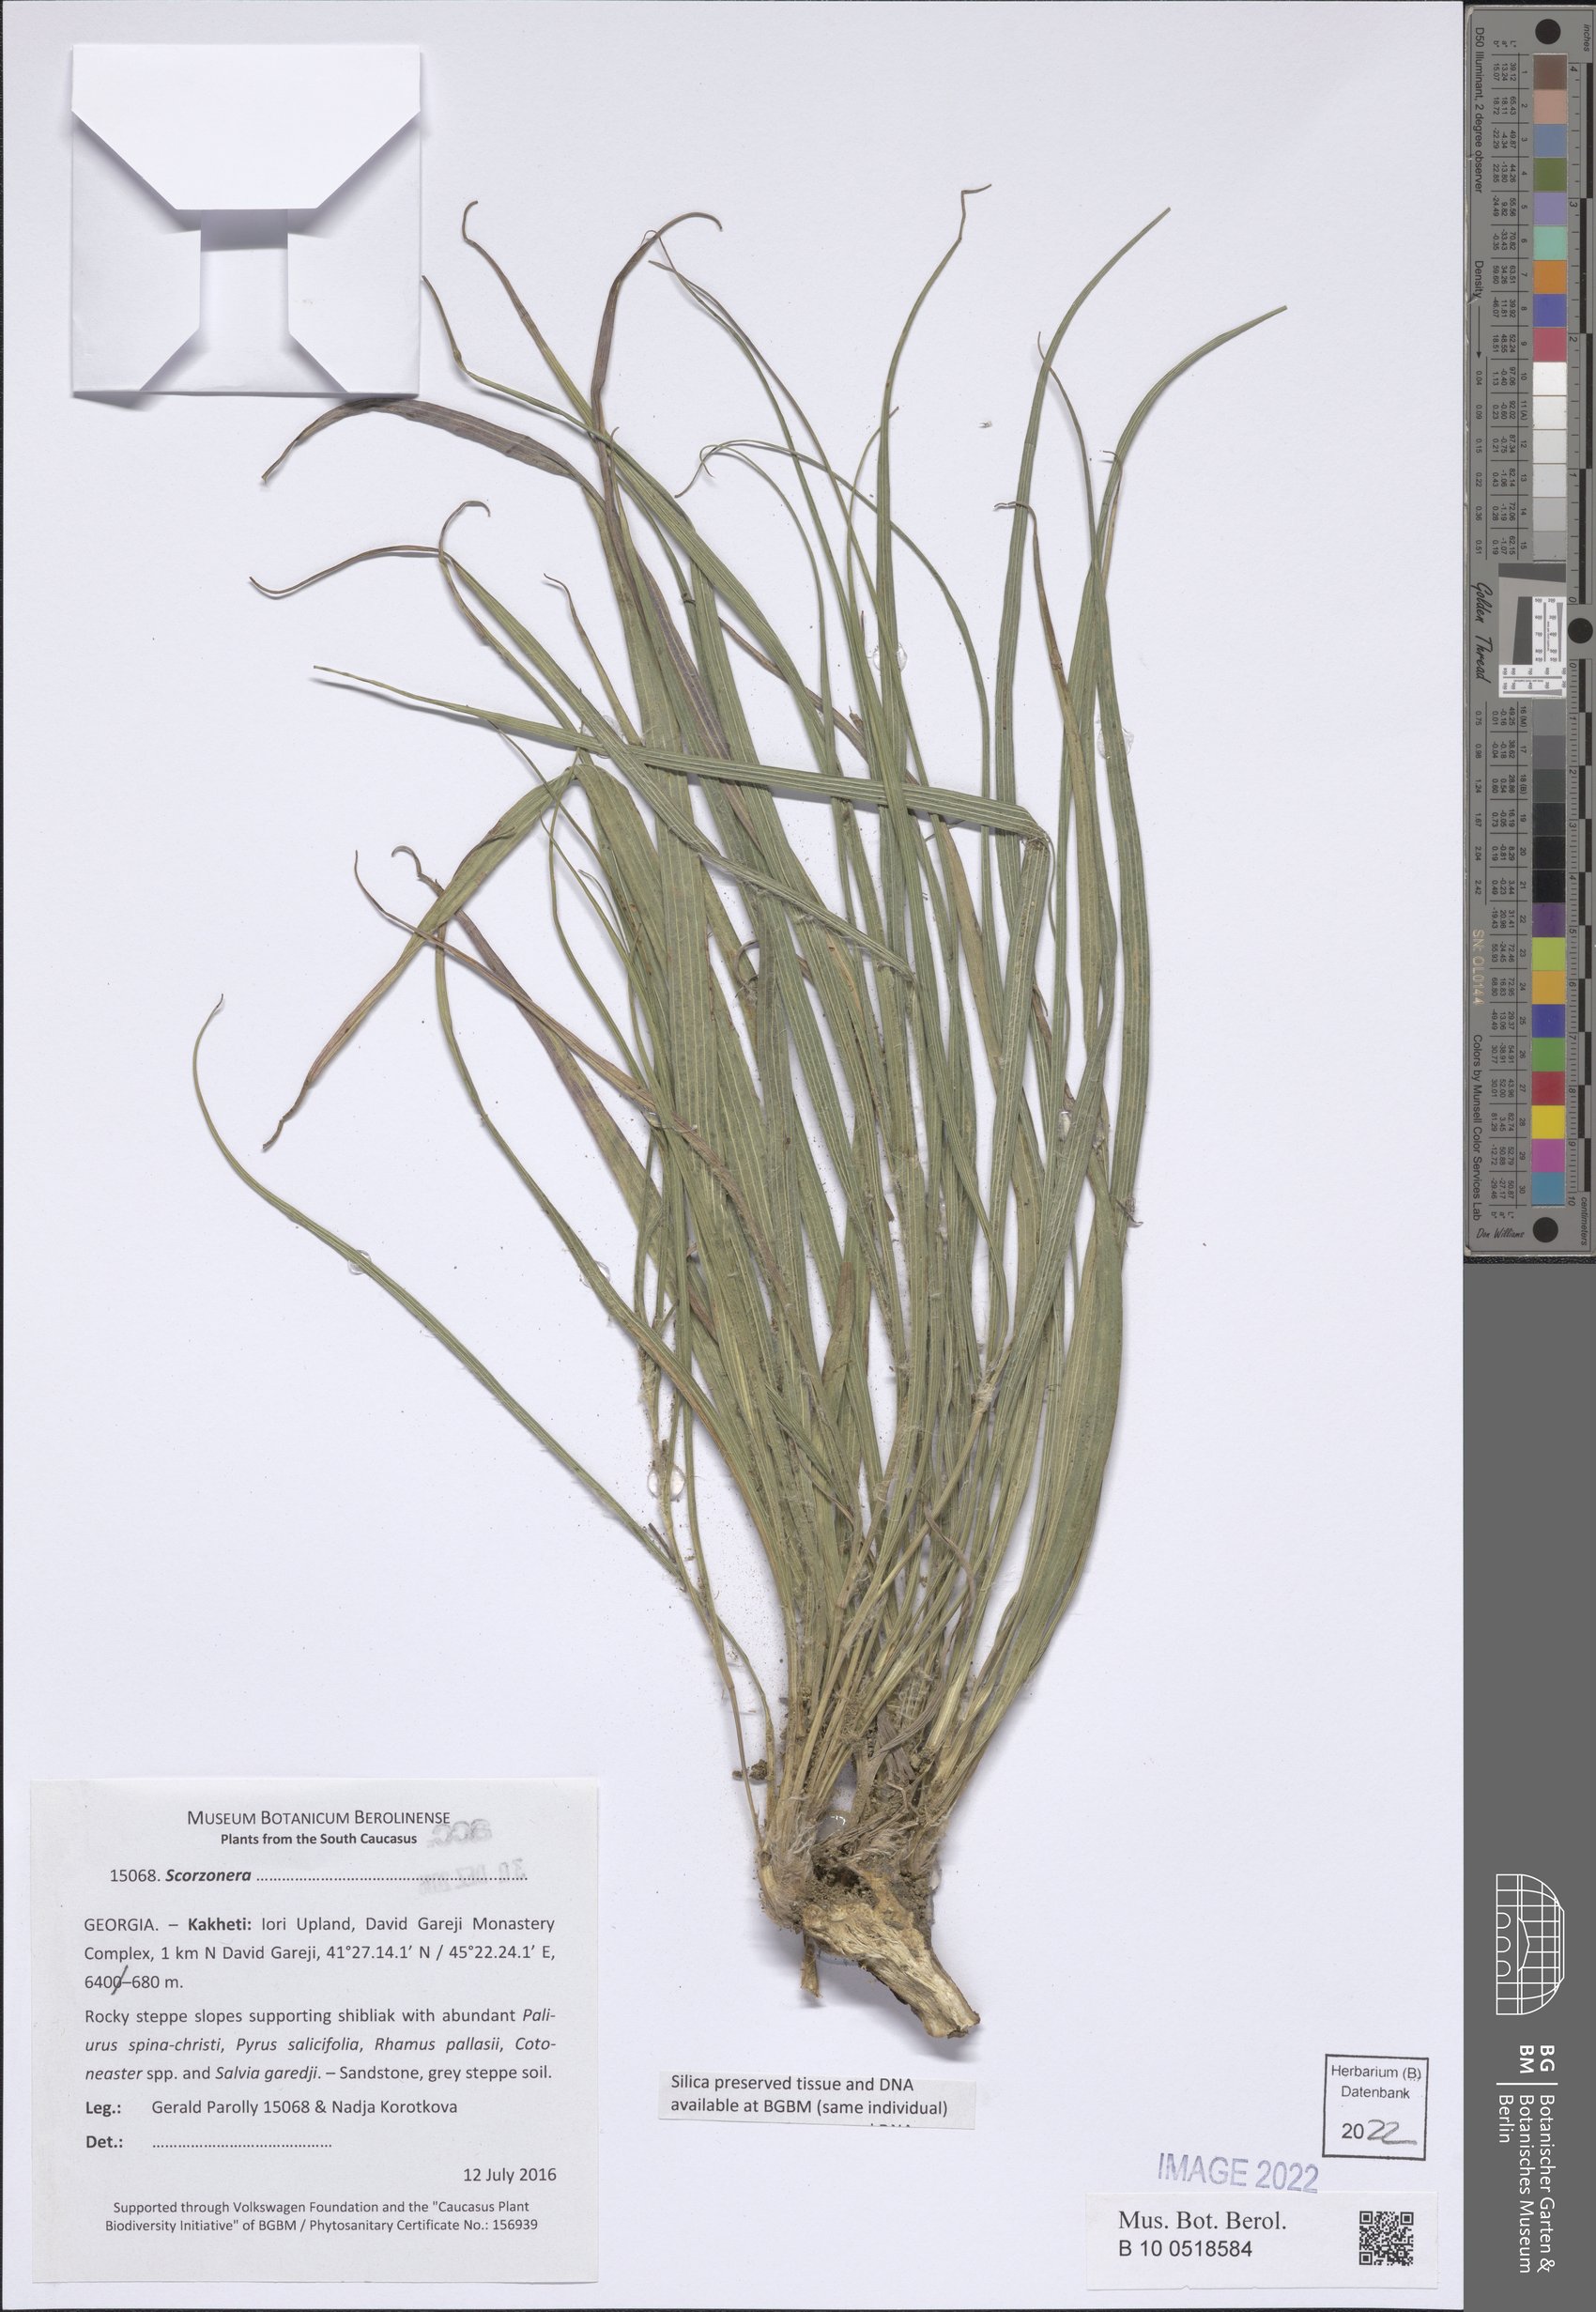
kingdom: Plantae
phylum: Tracheophyta
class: Magnoliopsida
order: Asterales
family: Asteraceae
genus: Scorzonera
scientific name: Scorzonera
